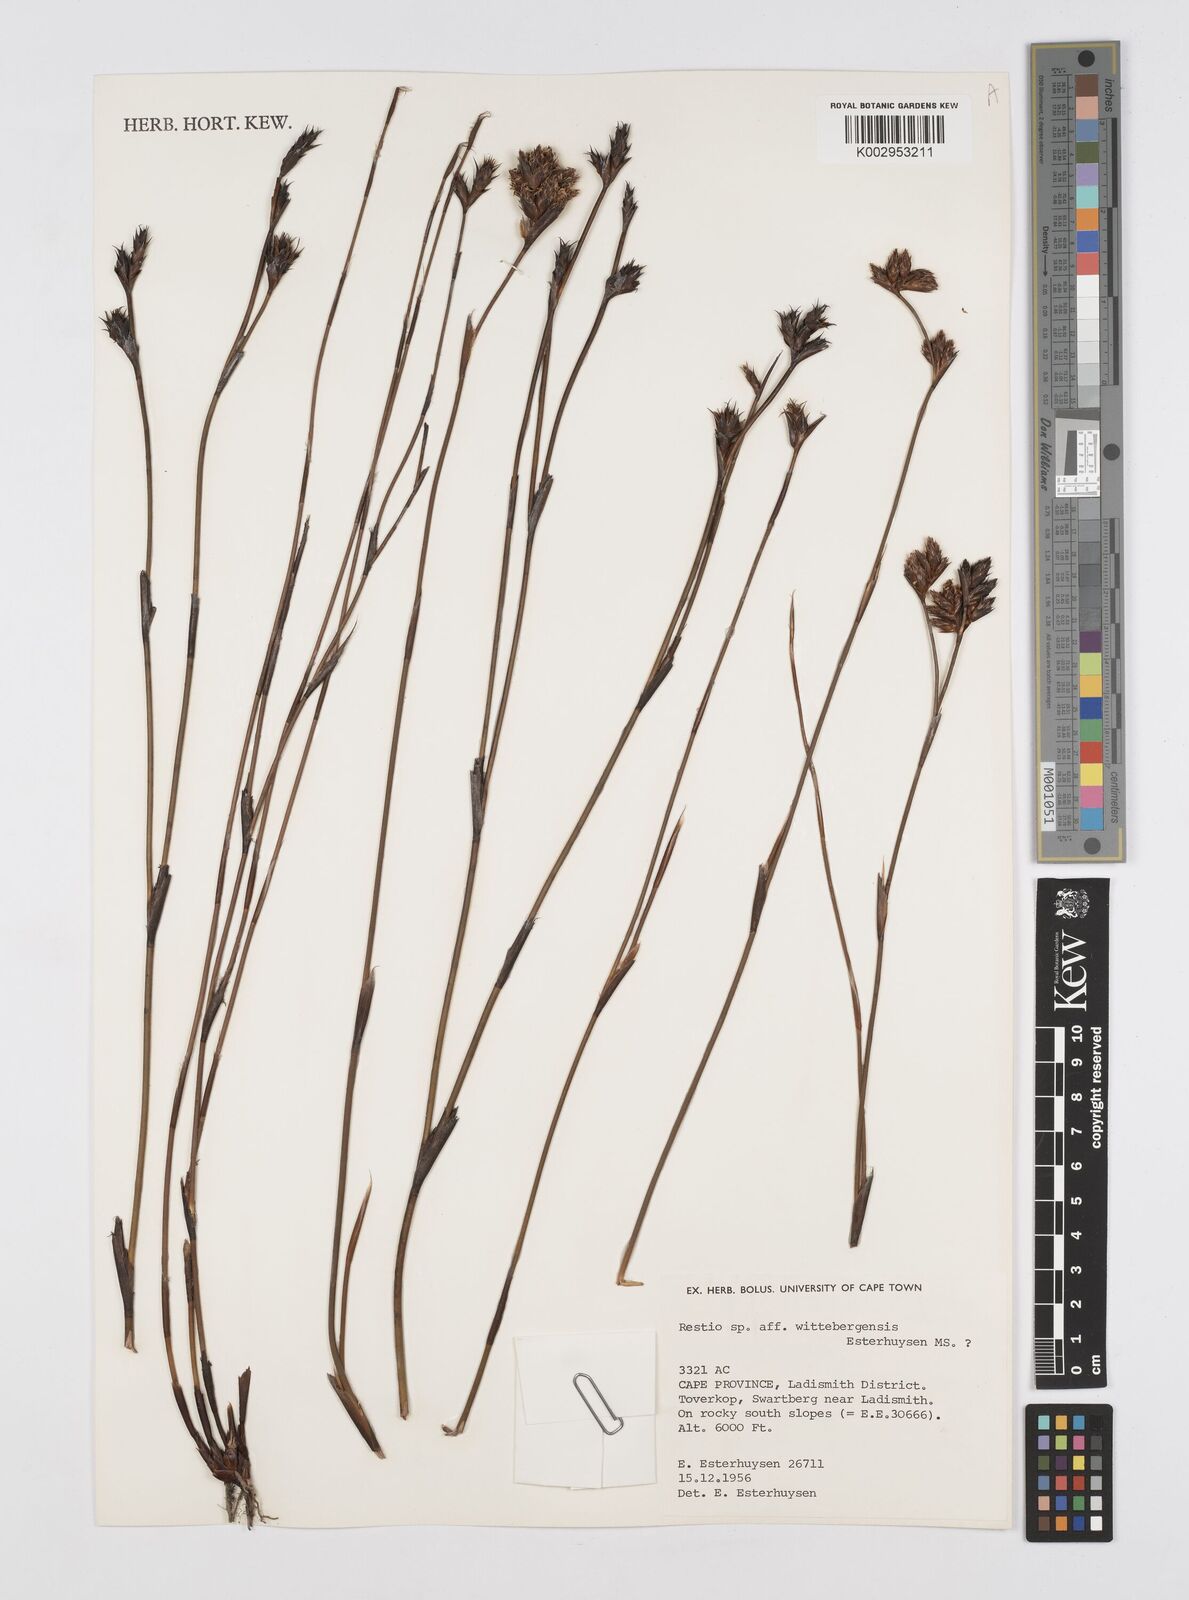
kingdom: Plantae
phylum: Tracheophyta
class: Liliopsida
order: Poales
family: Restionaceae
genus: Restio
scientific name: Restio
